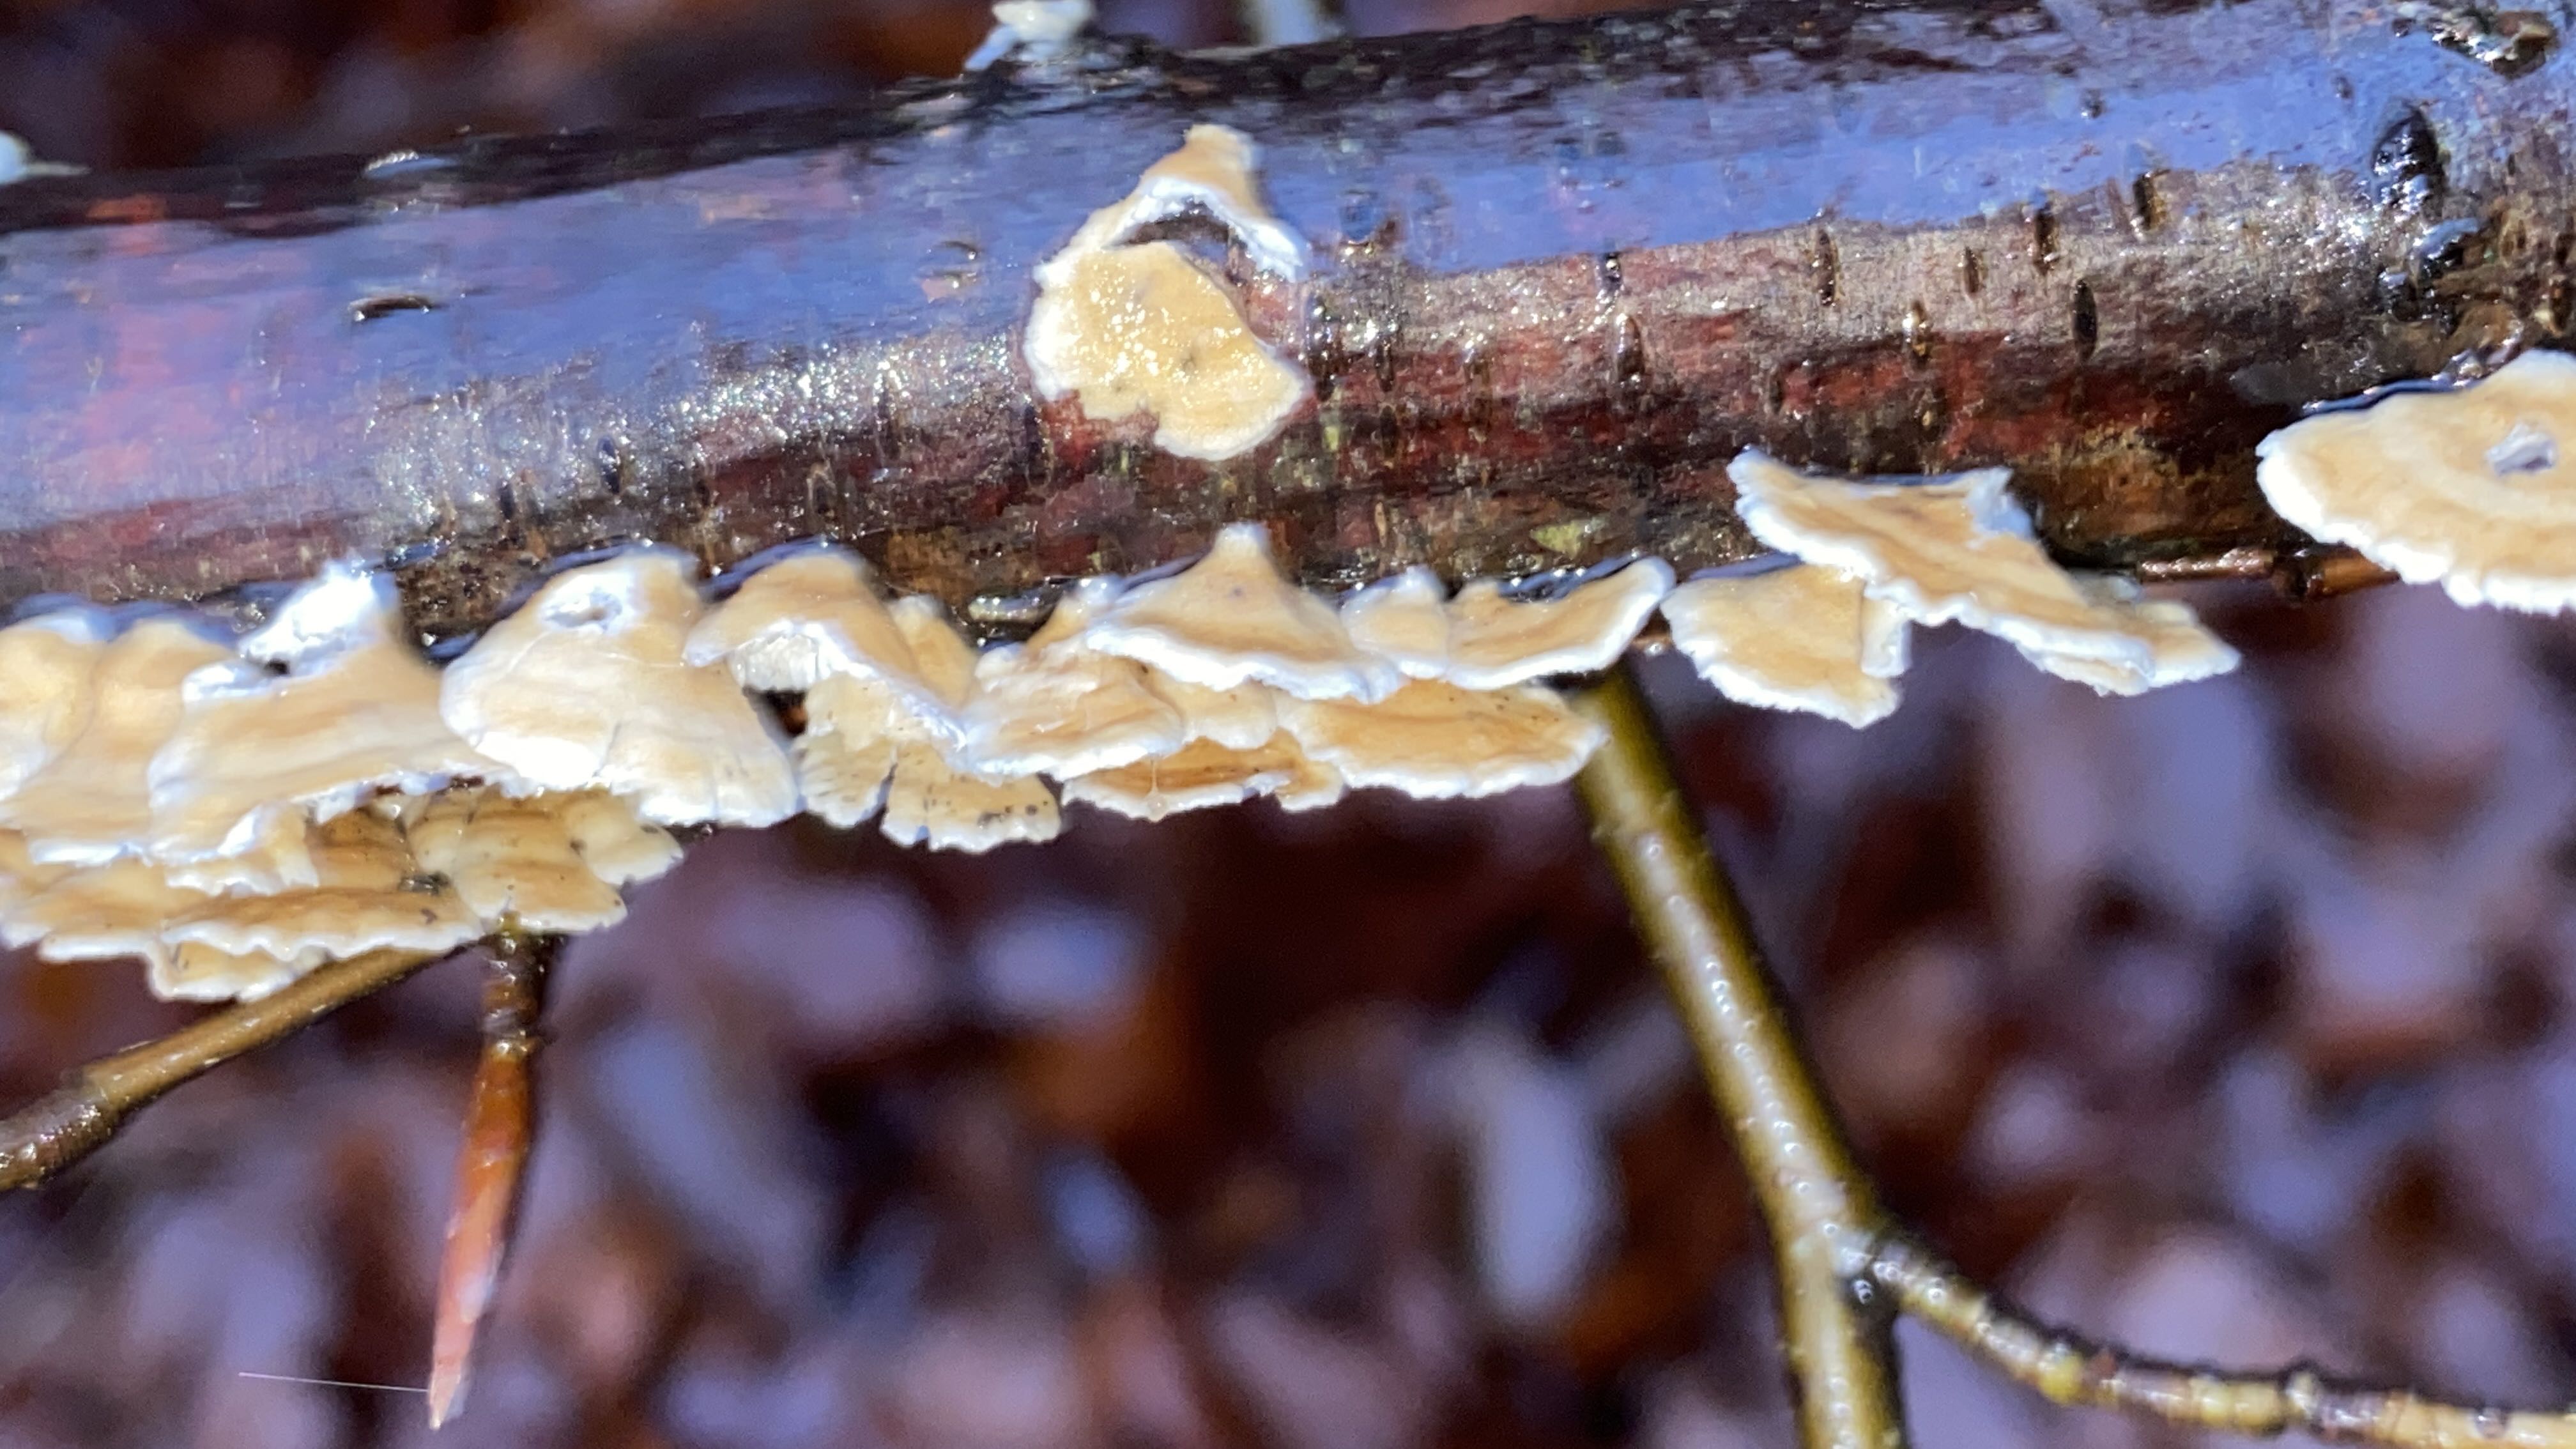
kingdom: Fungi
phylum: Basidiomycota
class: Agaricomycetes
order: Amylocorticiales
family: Amylocorticiaceae
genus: Plicaturopsis
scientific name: Plicaturopsis crispa
